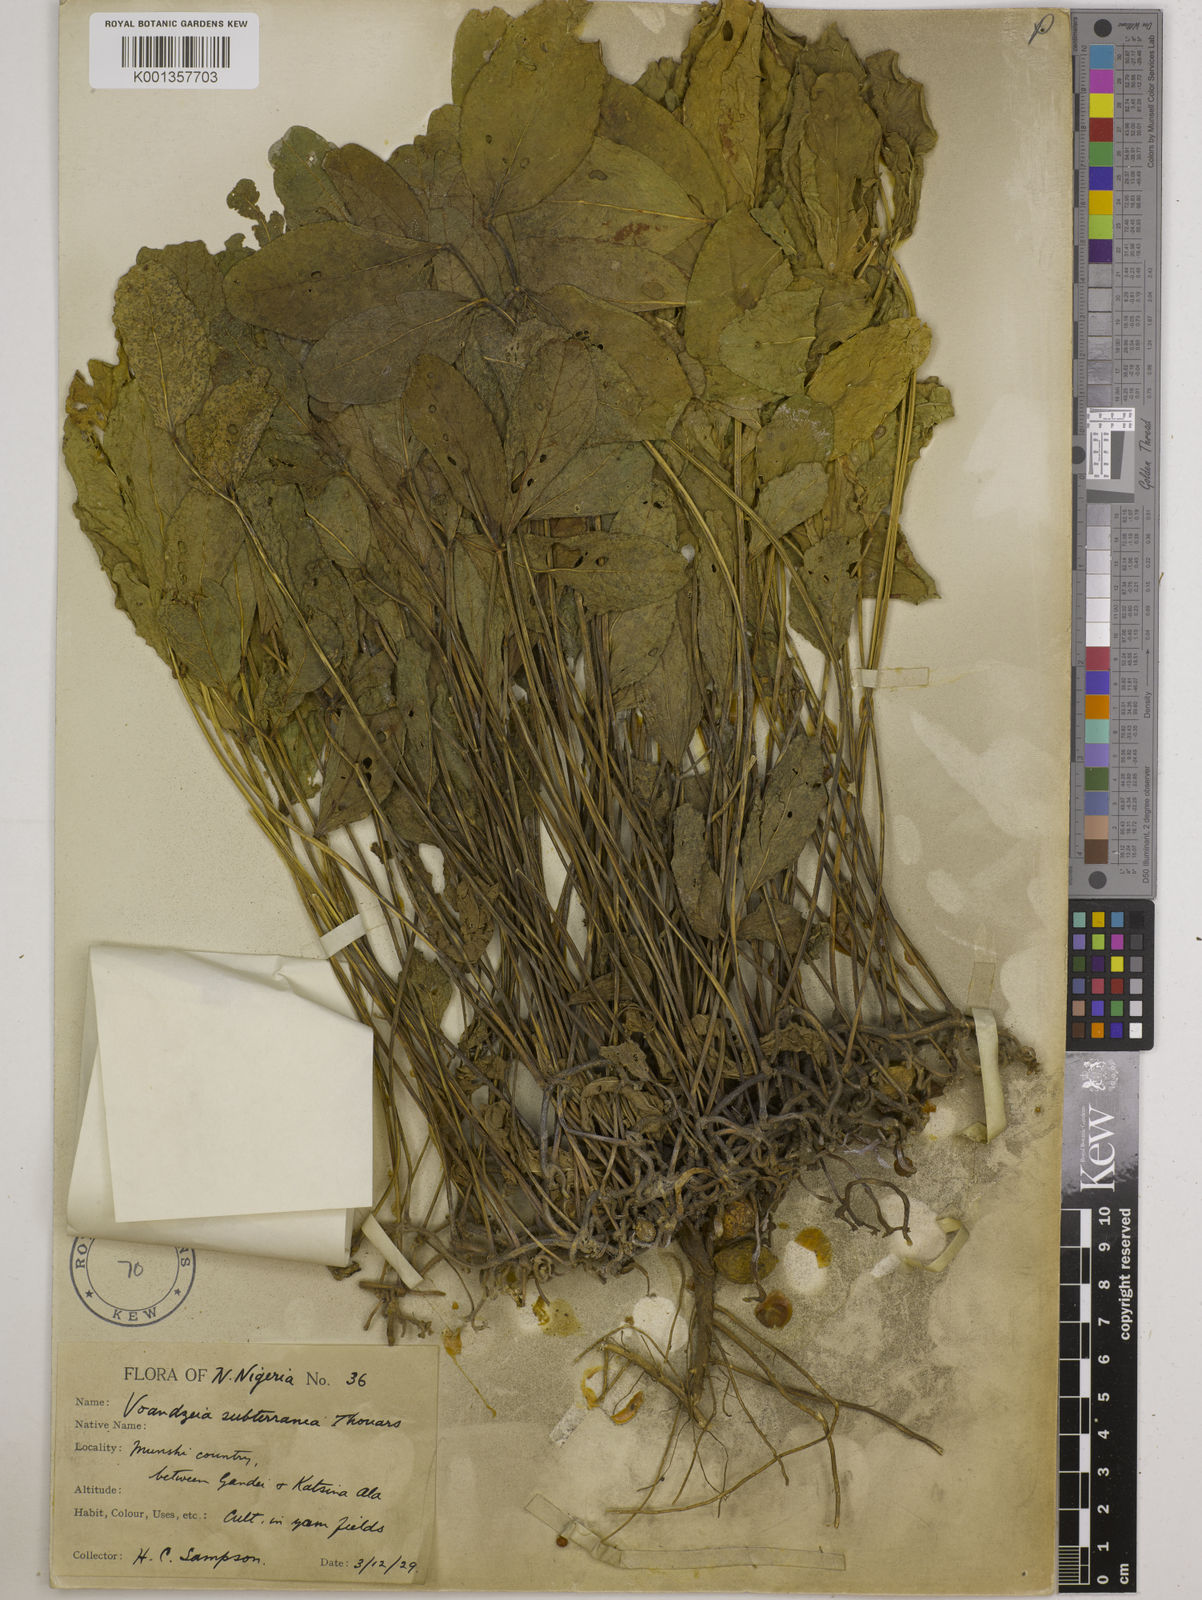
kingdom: Plantae
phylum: Tracheophyta
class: Magnoliopsida
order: Fabales
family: Fabaceae
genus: Vigna
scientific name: Vigna subterranea
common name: Bambara groundnut
